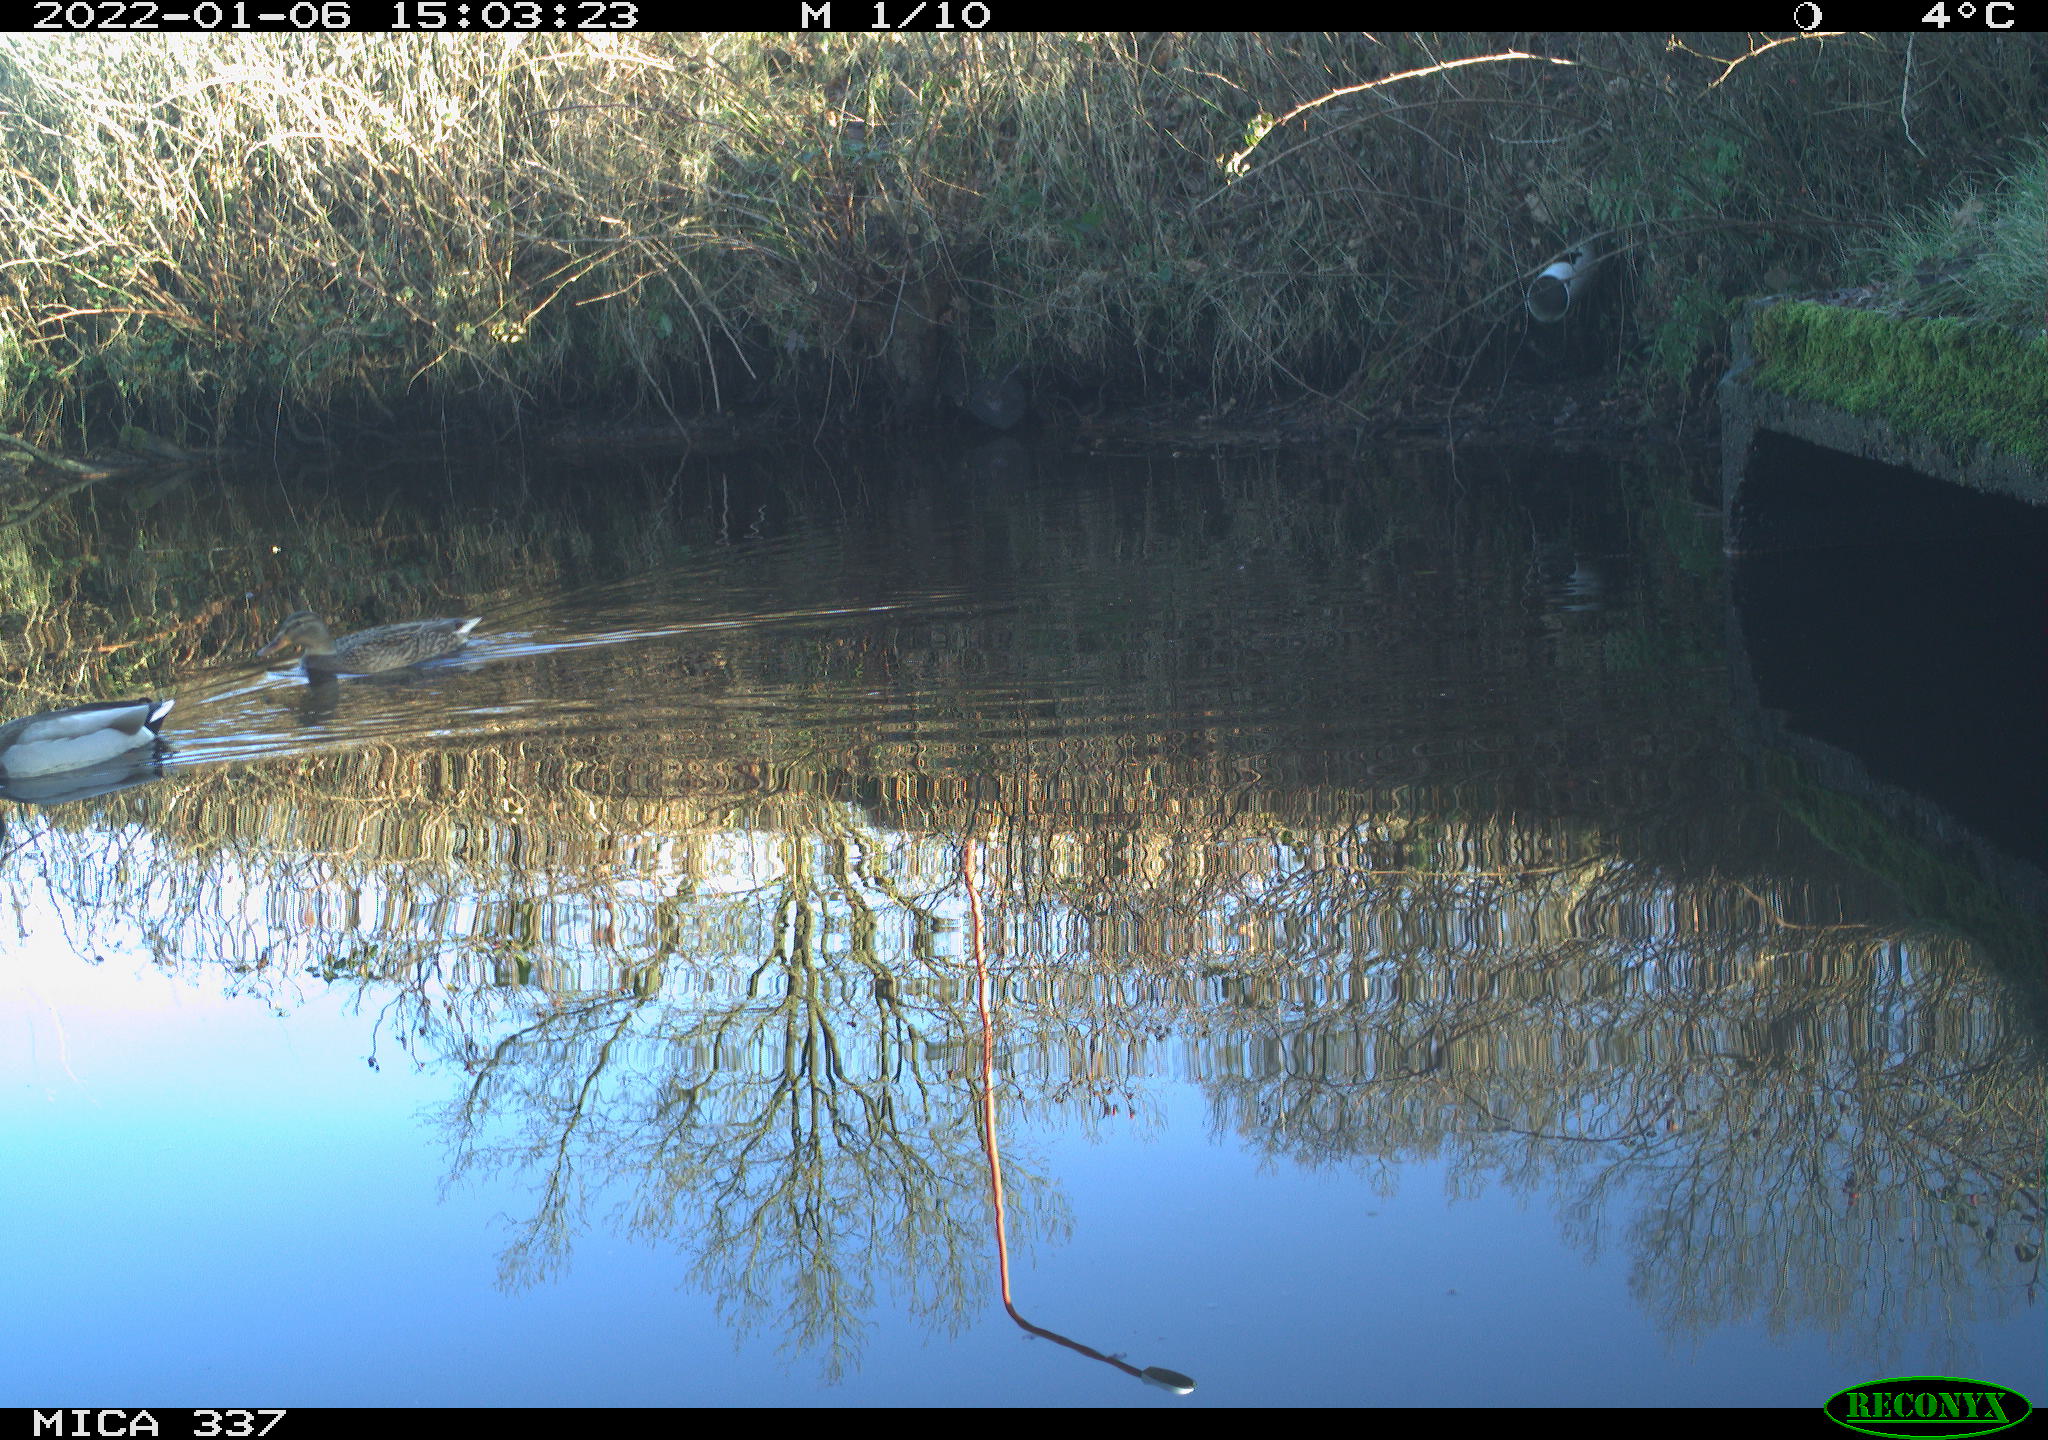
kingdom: Animalia
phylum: Chordata
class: Aves
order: Anseriformes
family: Anatidae
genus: Anas
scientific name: Anas platyrhynchos
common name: Mallard
